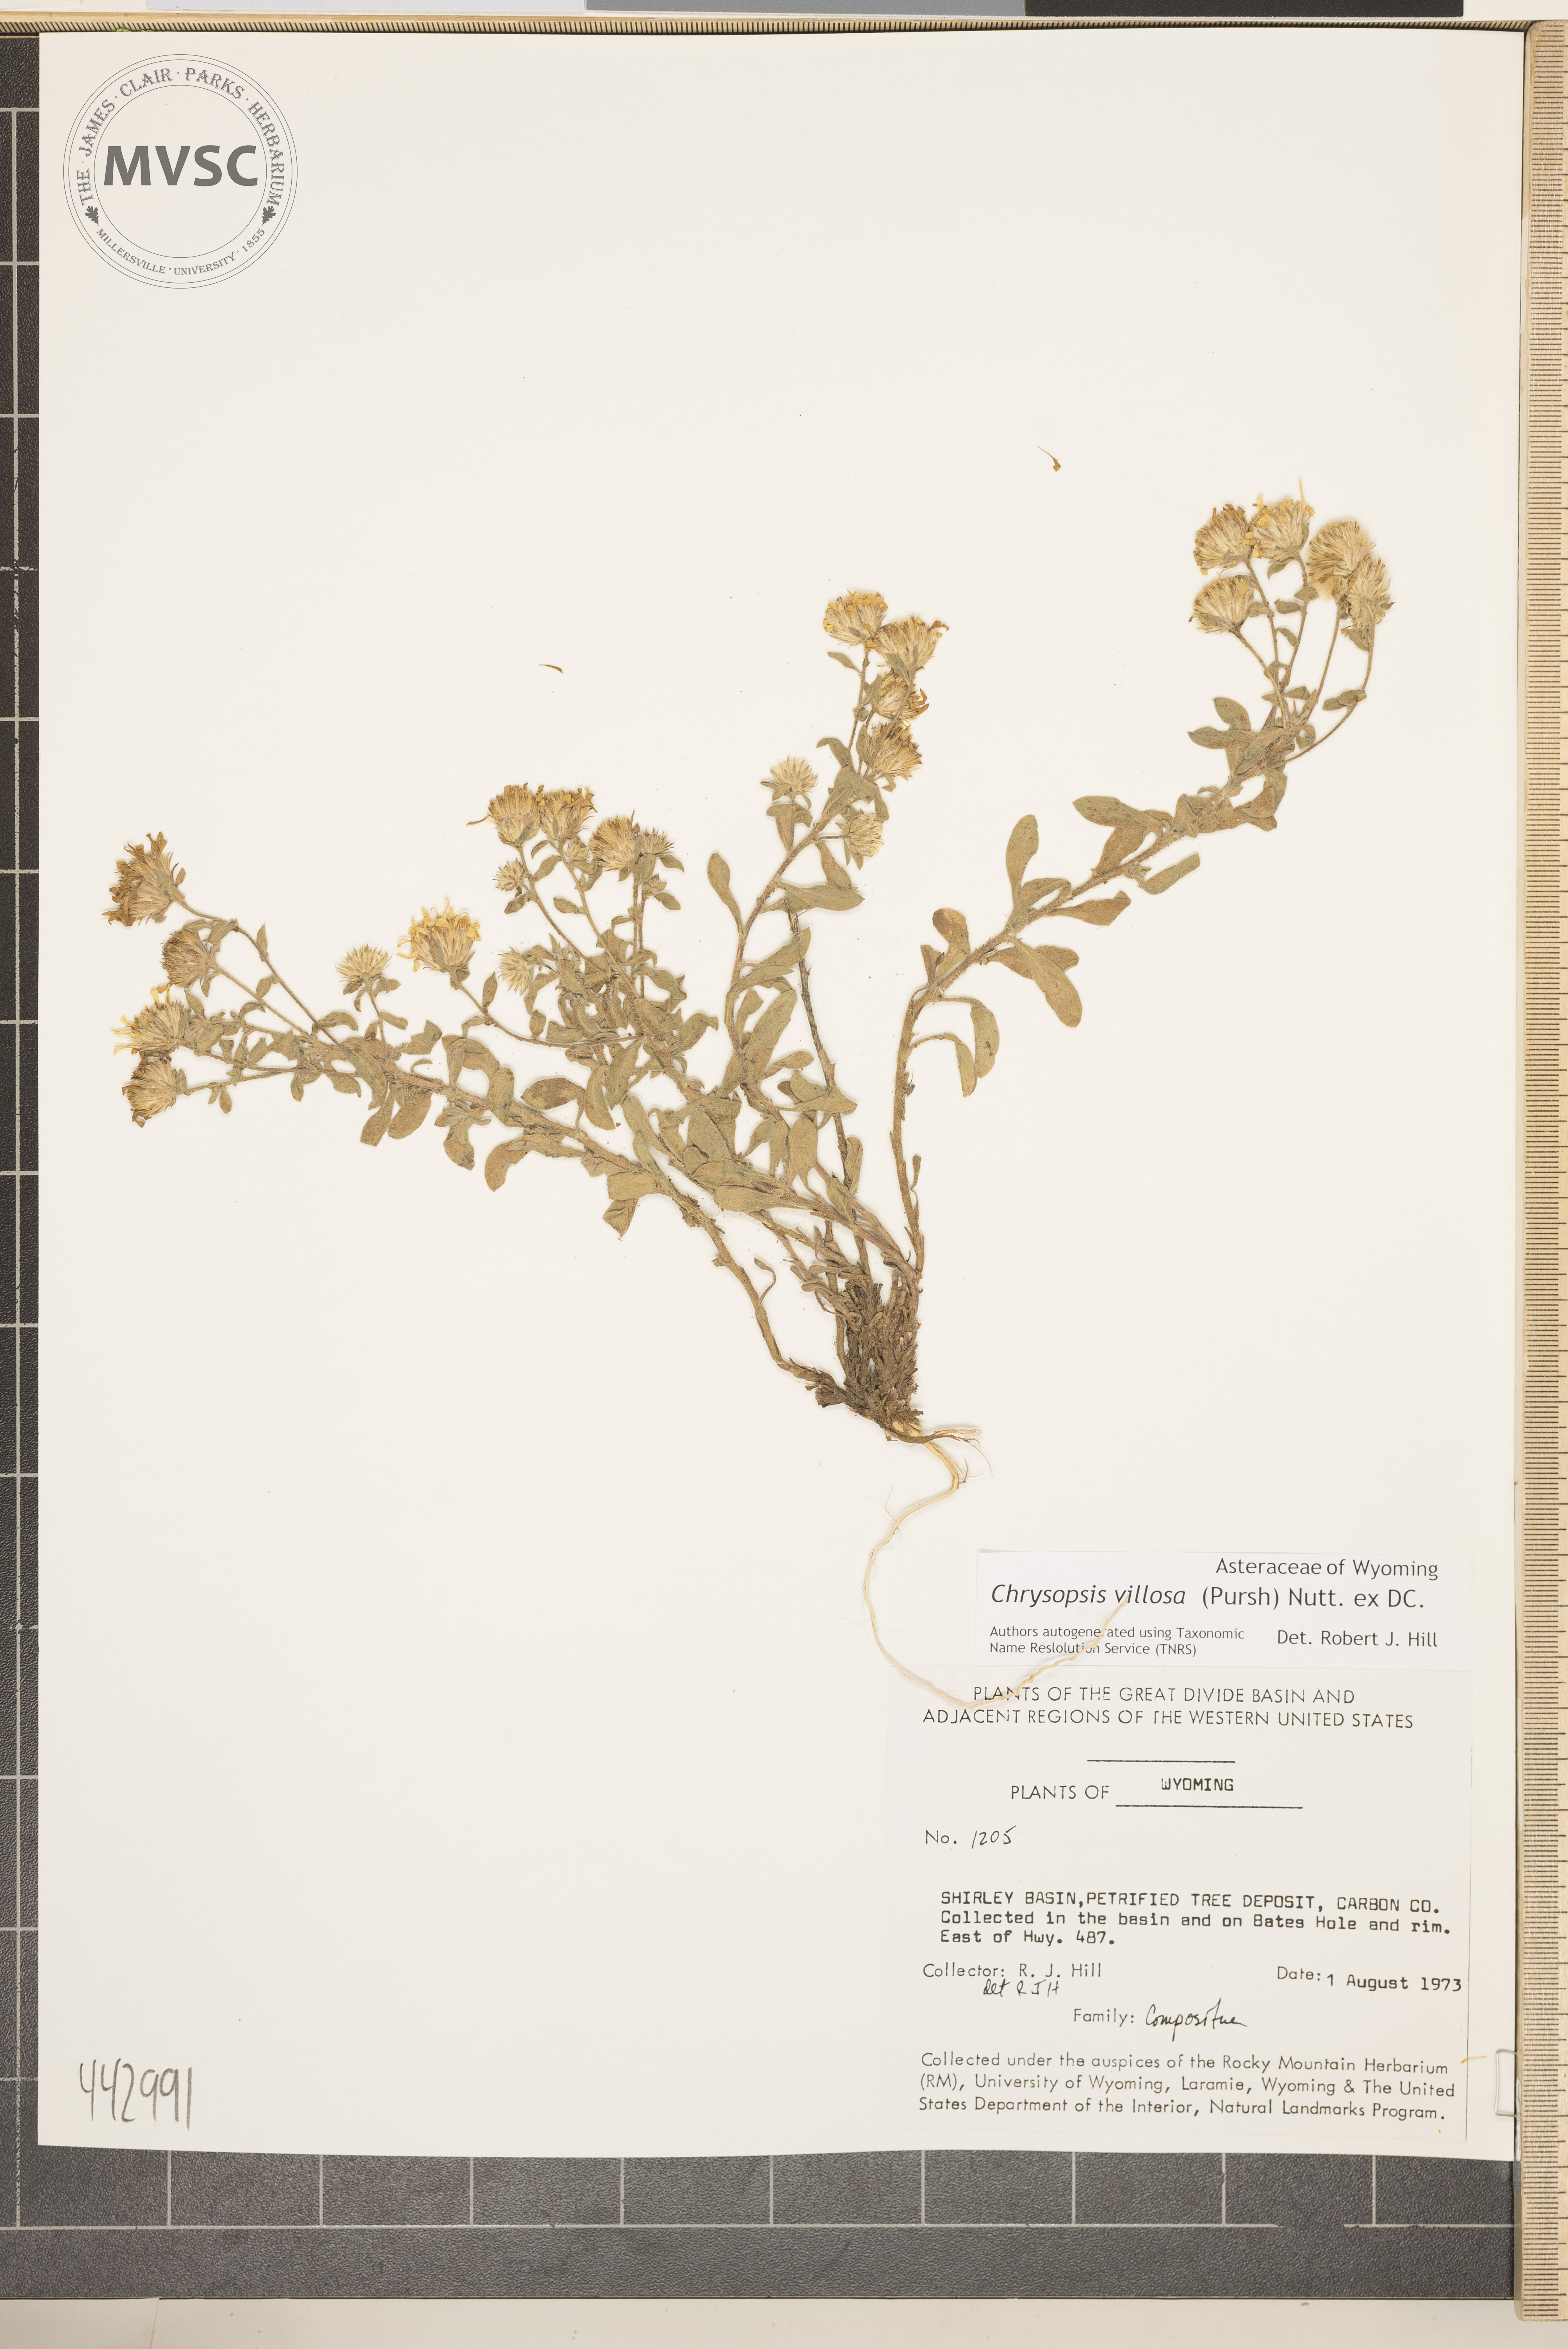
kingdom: Plantae
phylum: Tracheophyta
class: Magnoliopsida
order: Asterales
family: Asteraceae
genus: Heterotheca
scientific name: Heterotheca villosa
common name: Hairy false goldenaster
